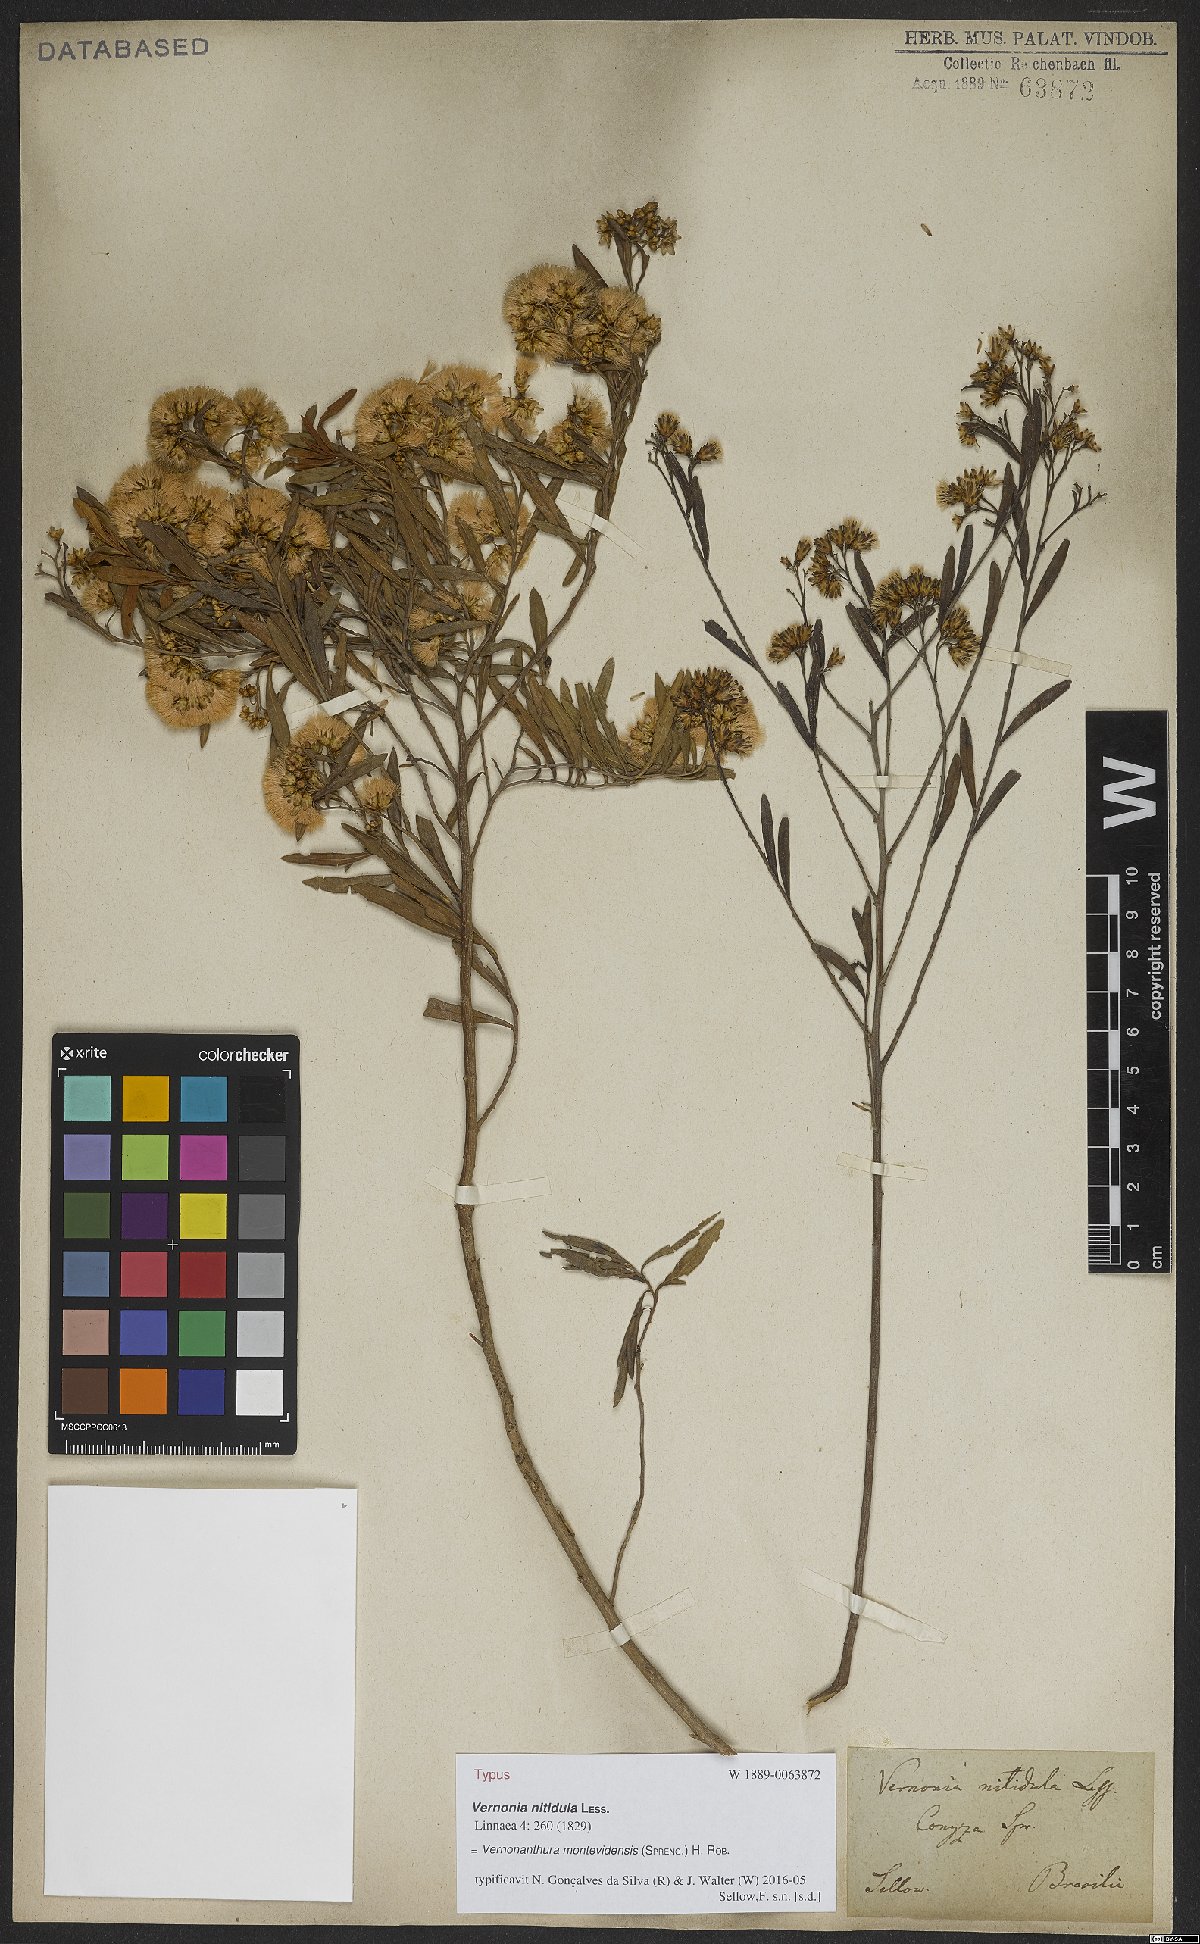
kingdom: Plantae
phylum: Tracheophyta
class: Magnoliopsida
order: Asterales
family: Asteraceae
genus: Vernonanthura
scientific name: Vernonanthura montevidensis
